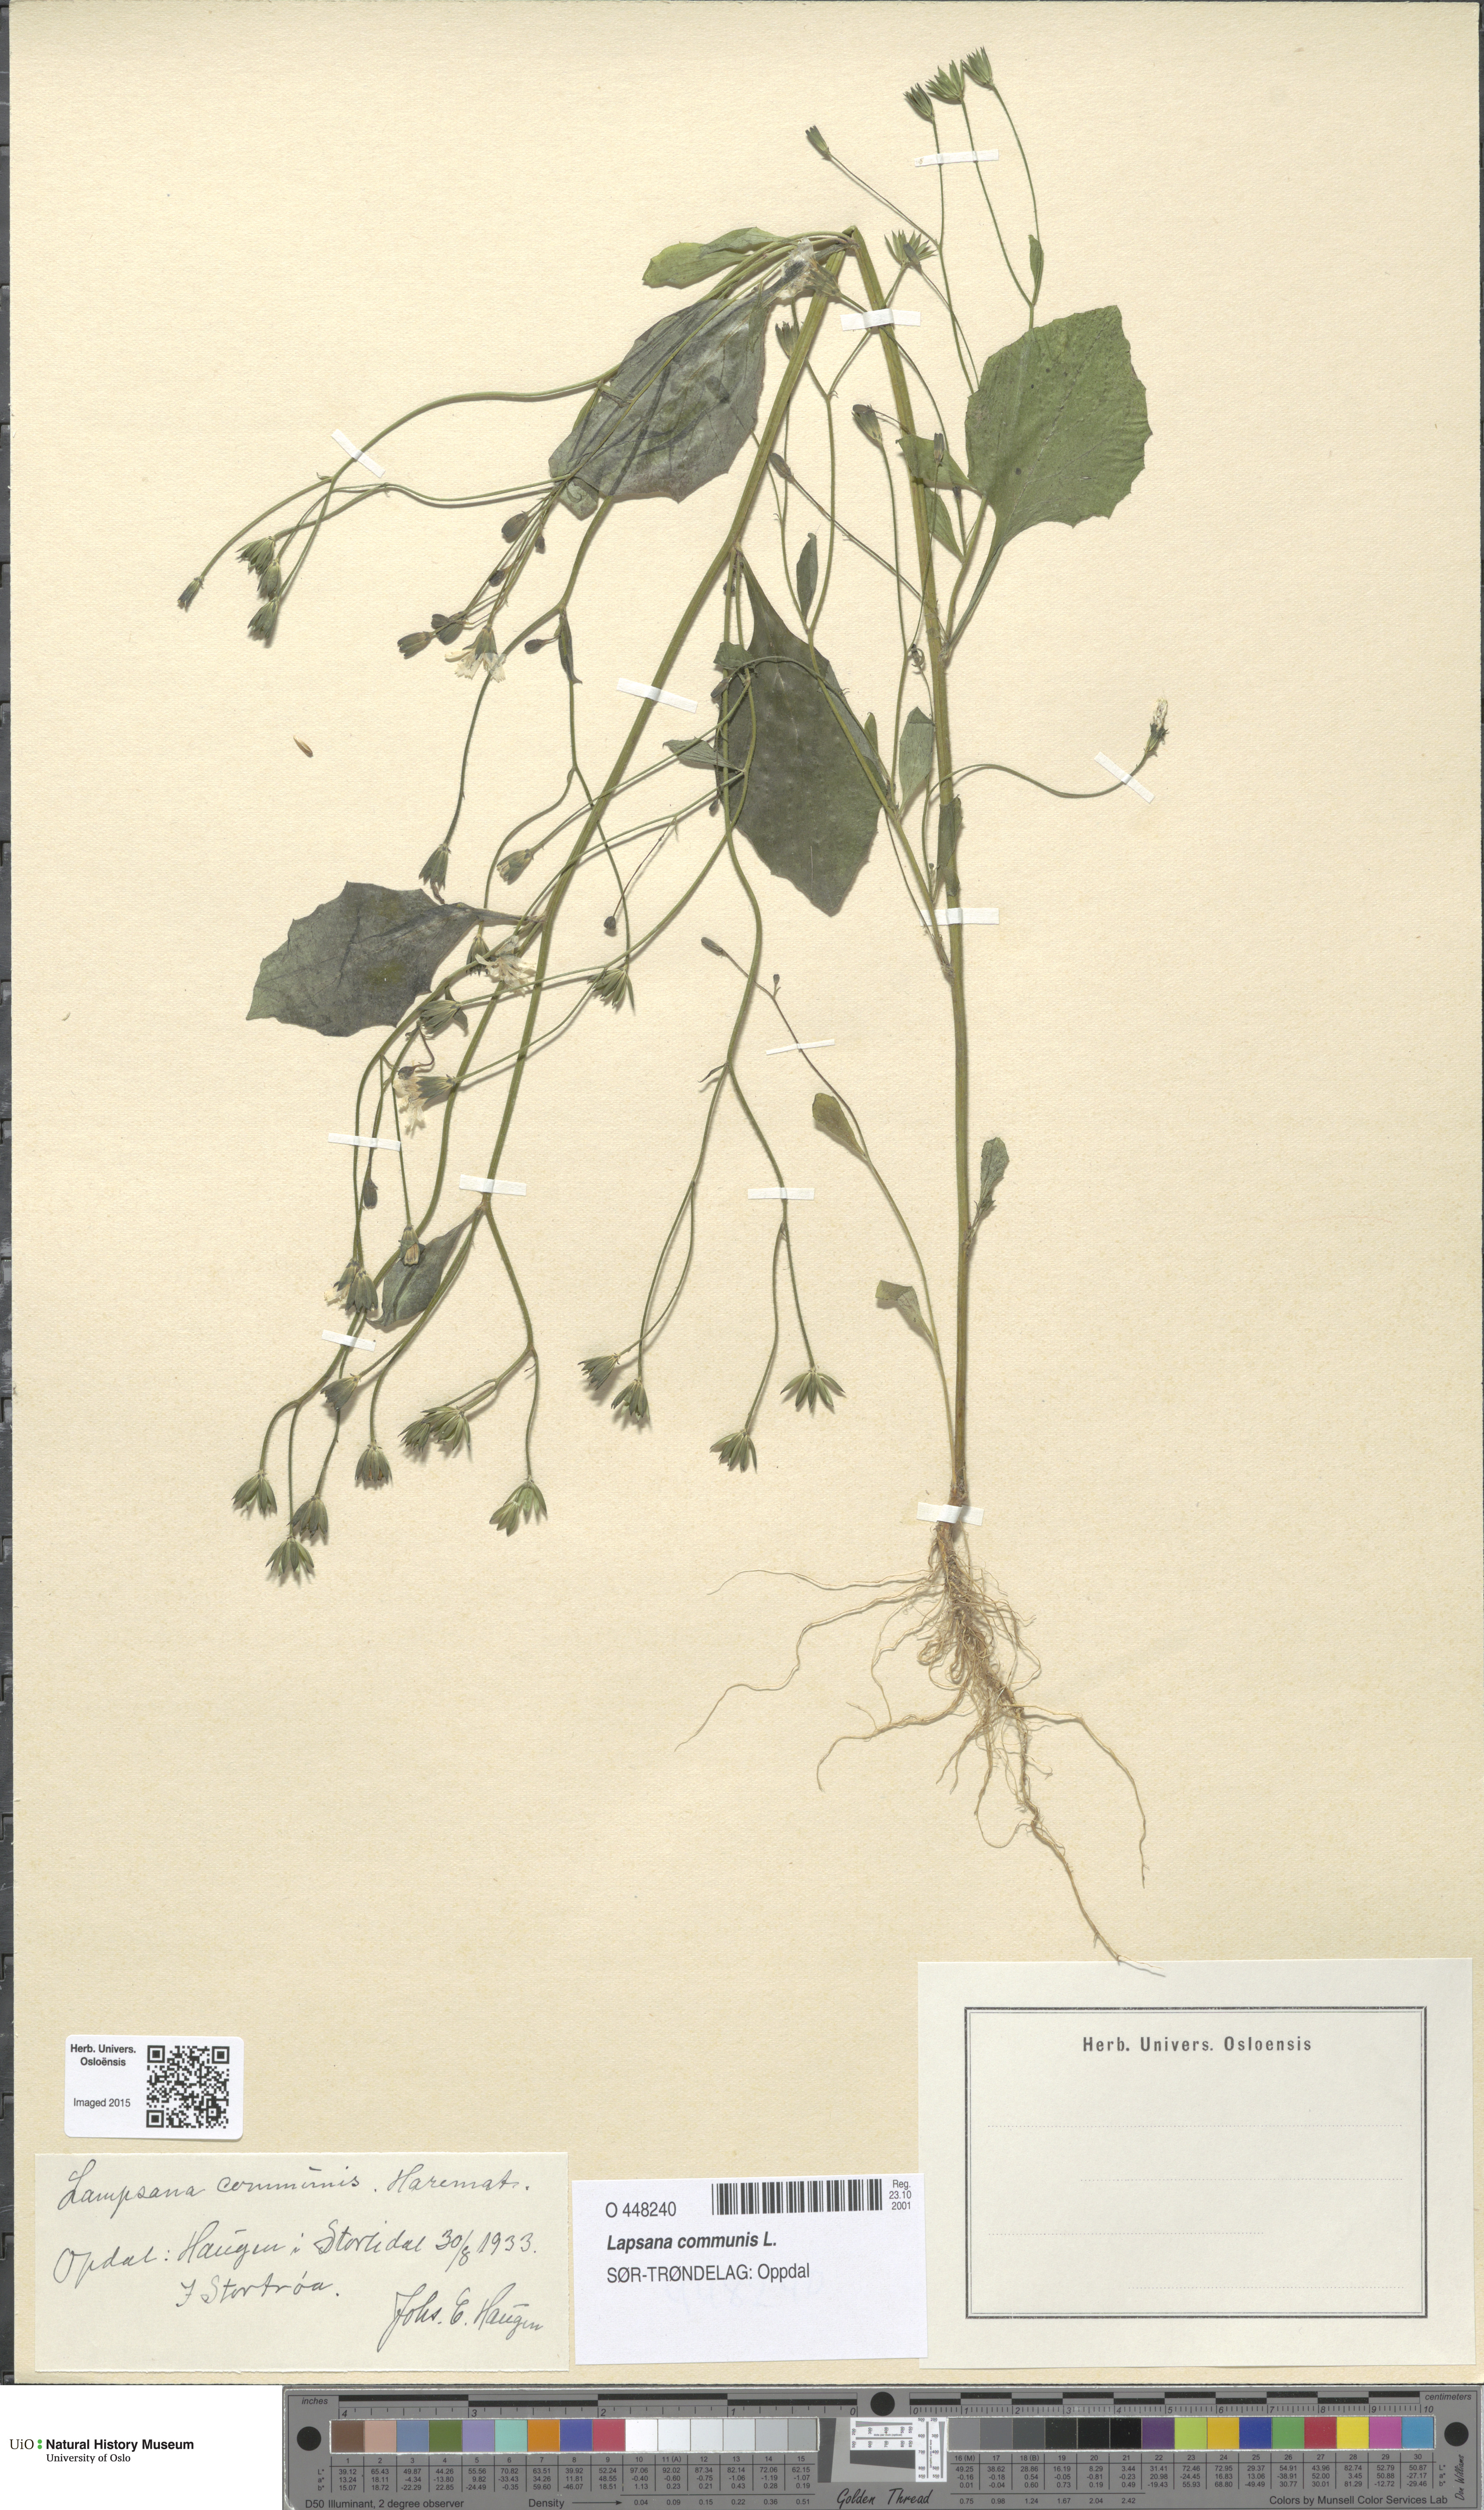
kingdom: Plantae
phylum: Tracheophyta
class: Magnoliopsida
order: Asterales
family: Asteraceae
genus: Lapsana
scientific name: Lapsana communis
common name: Nipplewort
